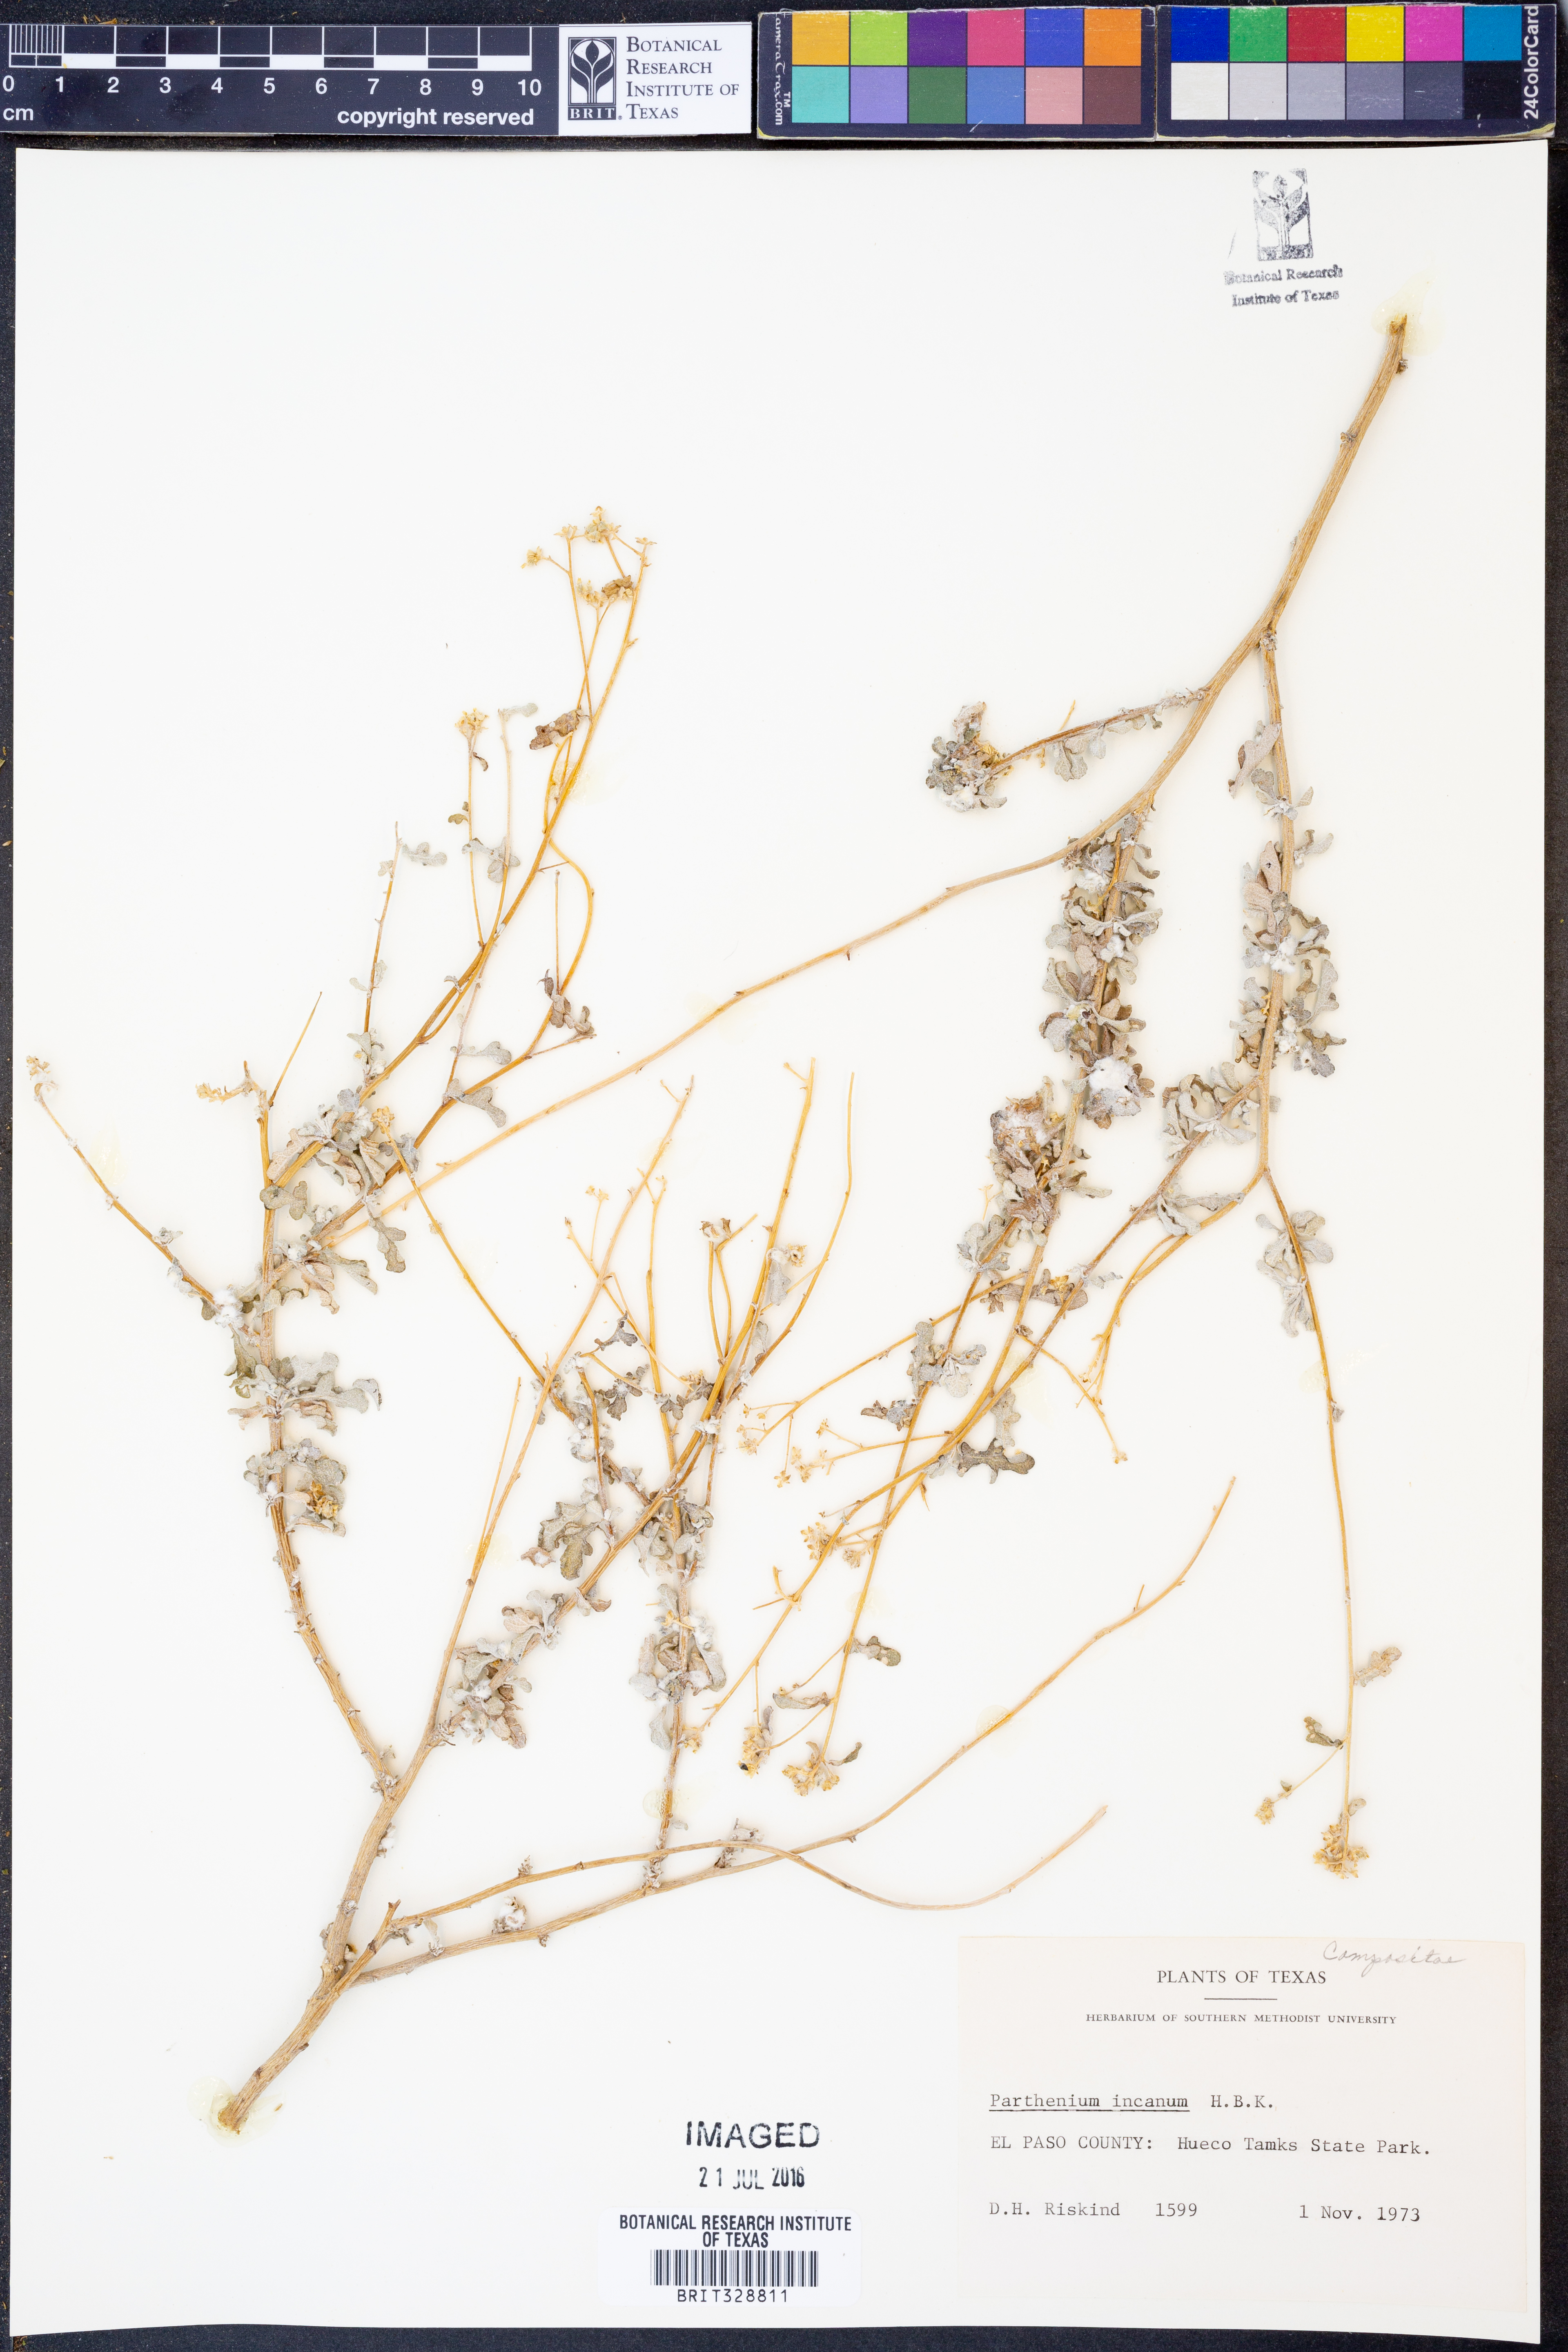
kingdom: Plantae
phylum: Tracheophyta
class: Magnoliopsida
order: Asterales
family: Asteraceae
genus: Parthenium
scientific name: Parthenium incanum
